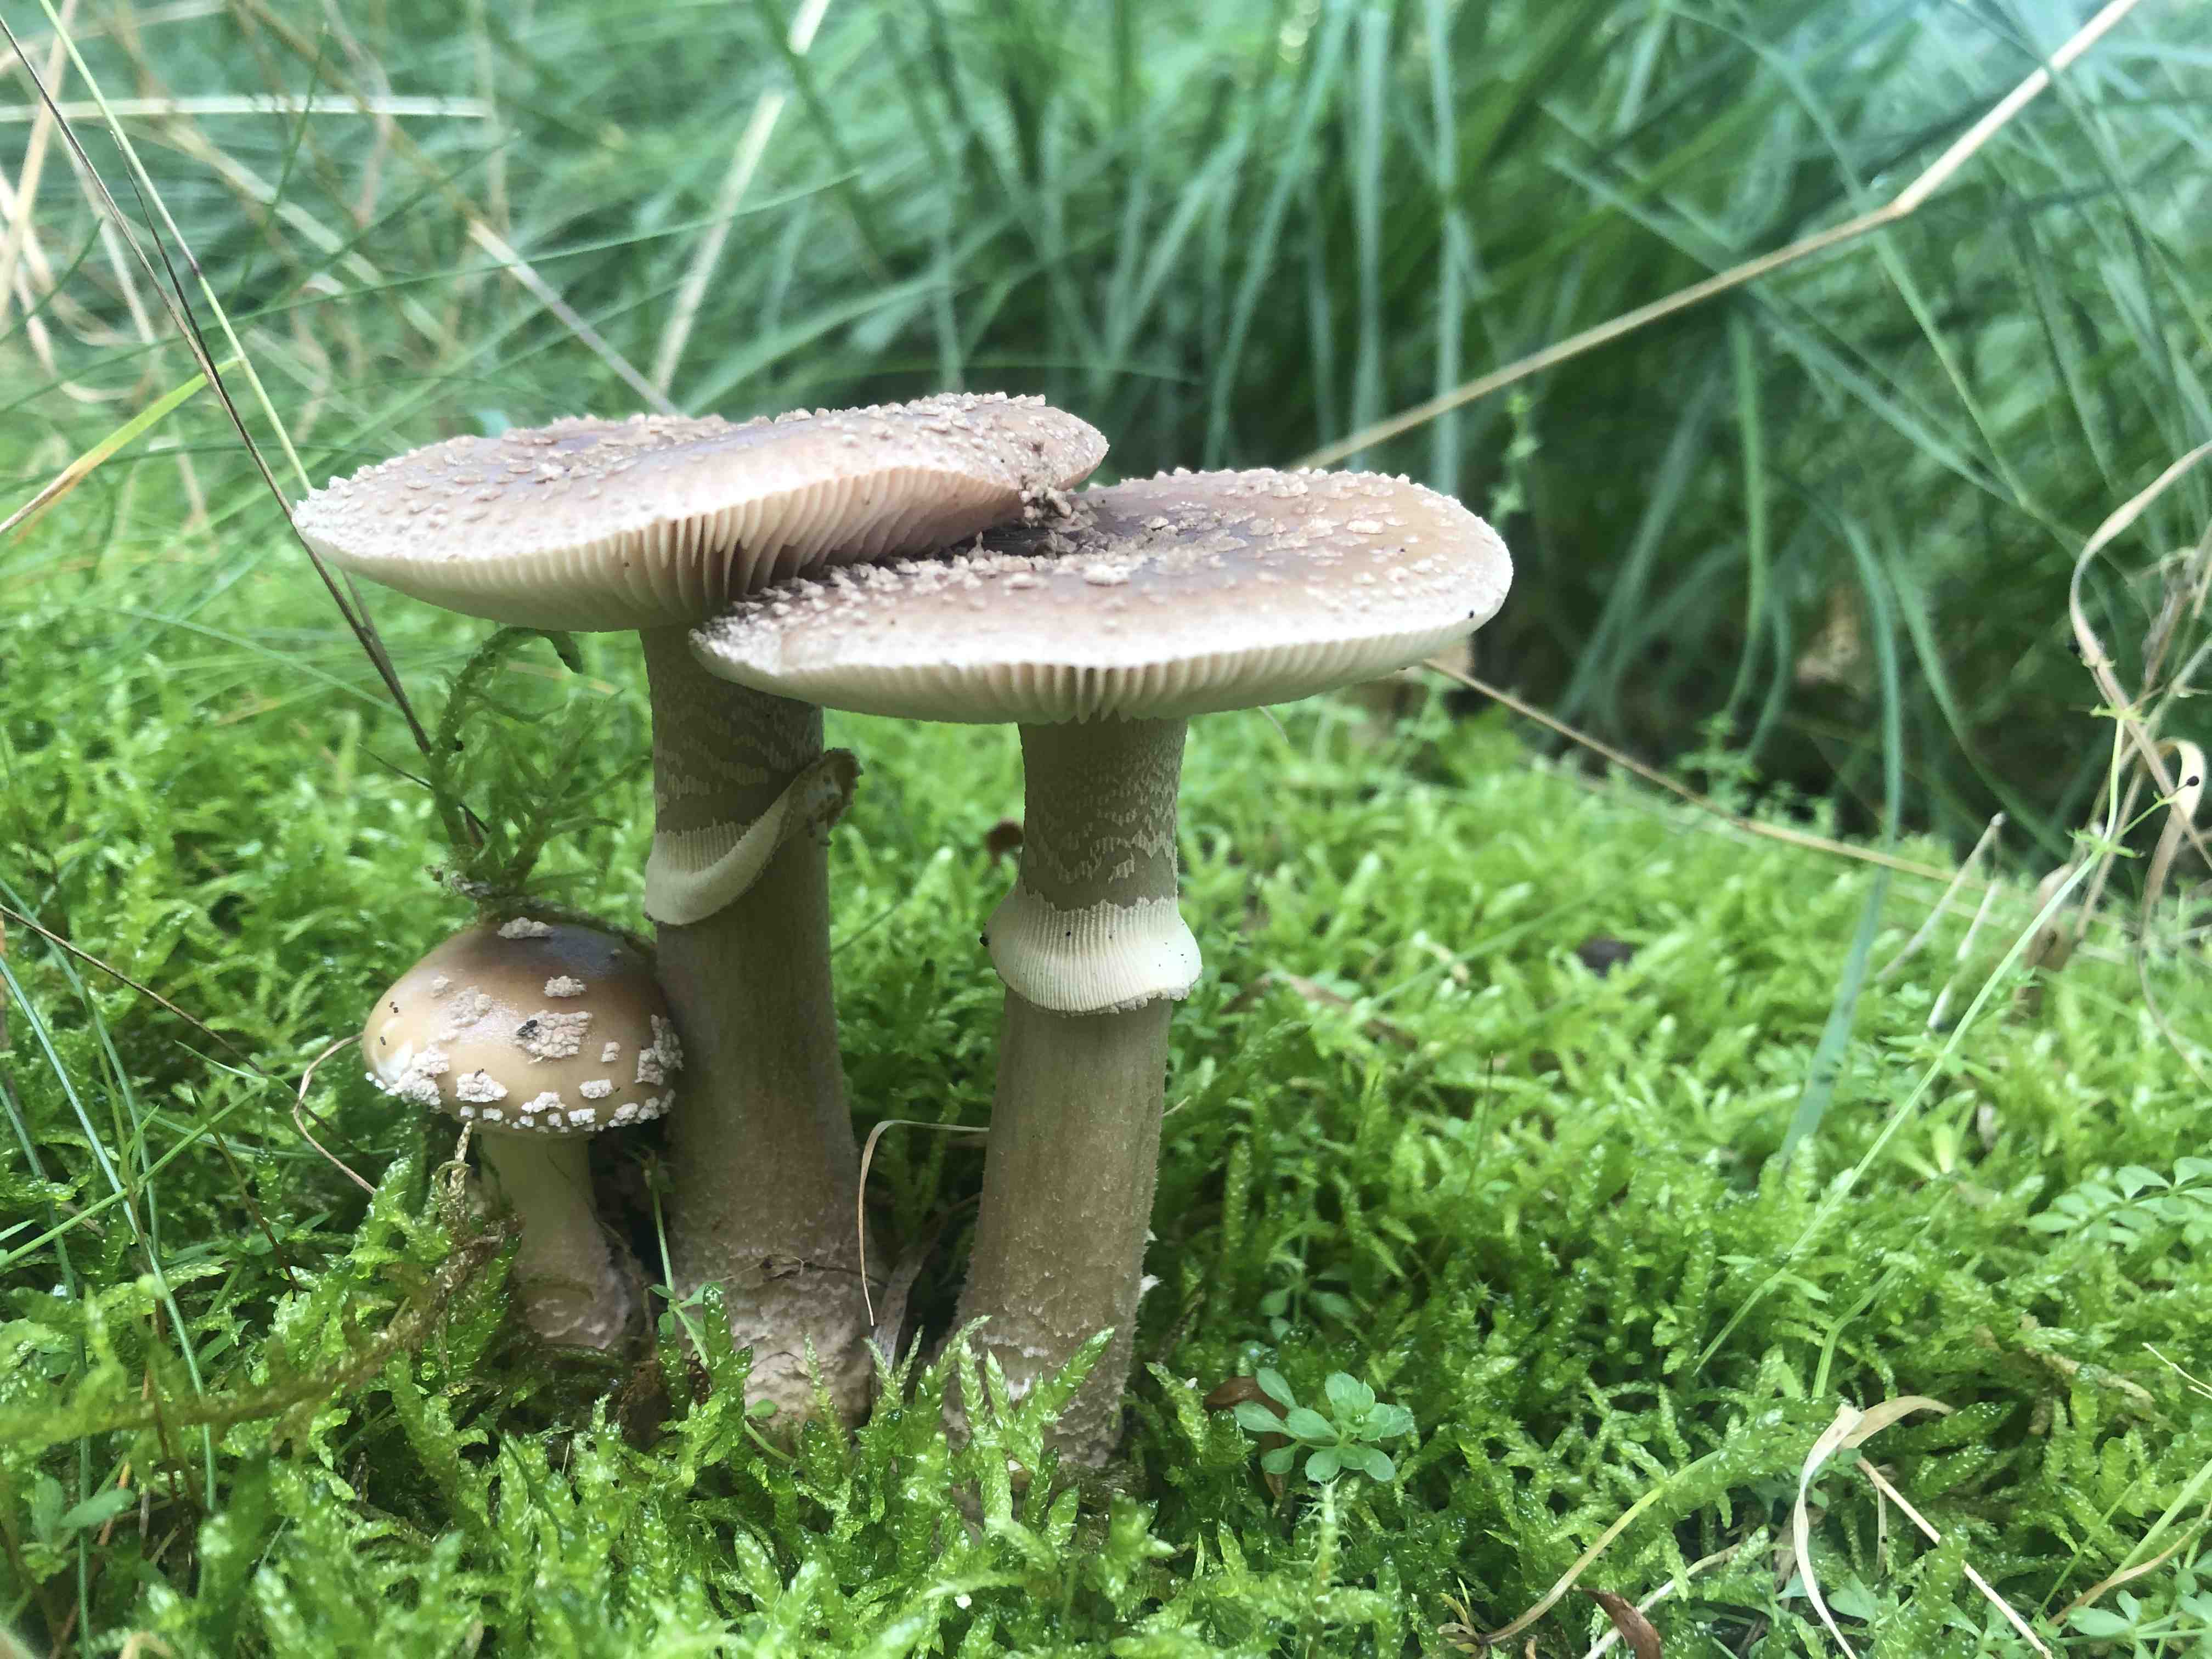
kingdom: Fungi
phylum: Basidiomycota
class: Agaricomycetes
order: Agaricales
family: Amanitaceae
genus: Amanita
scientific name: Amanita rubescens
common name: rødmende fluesvamp
